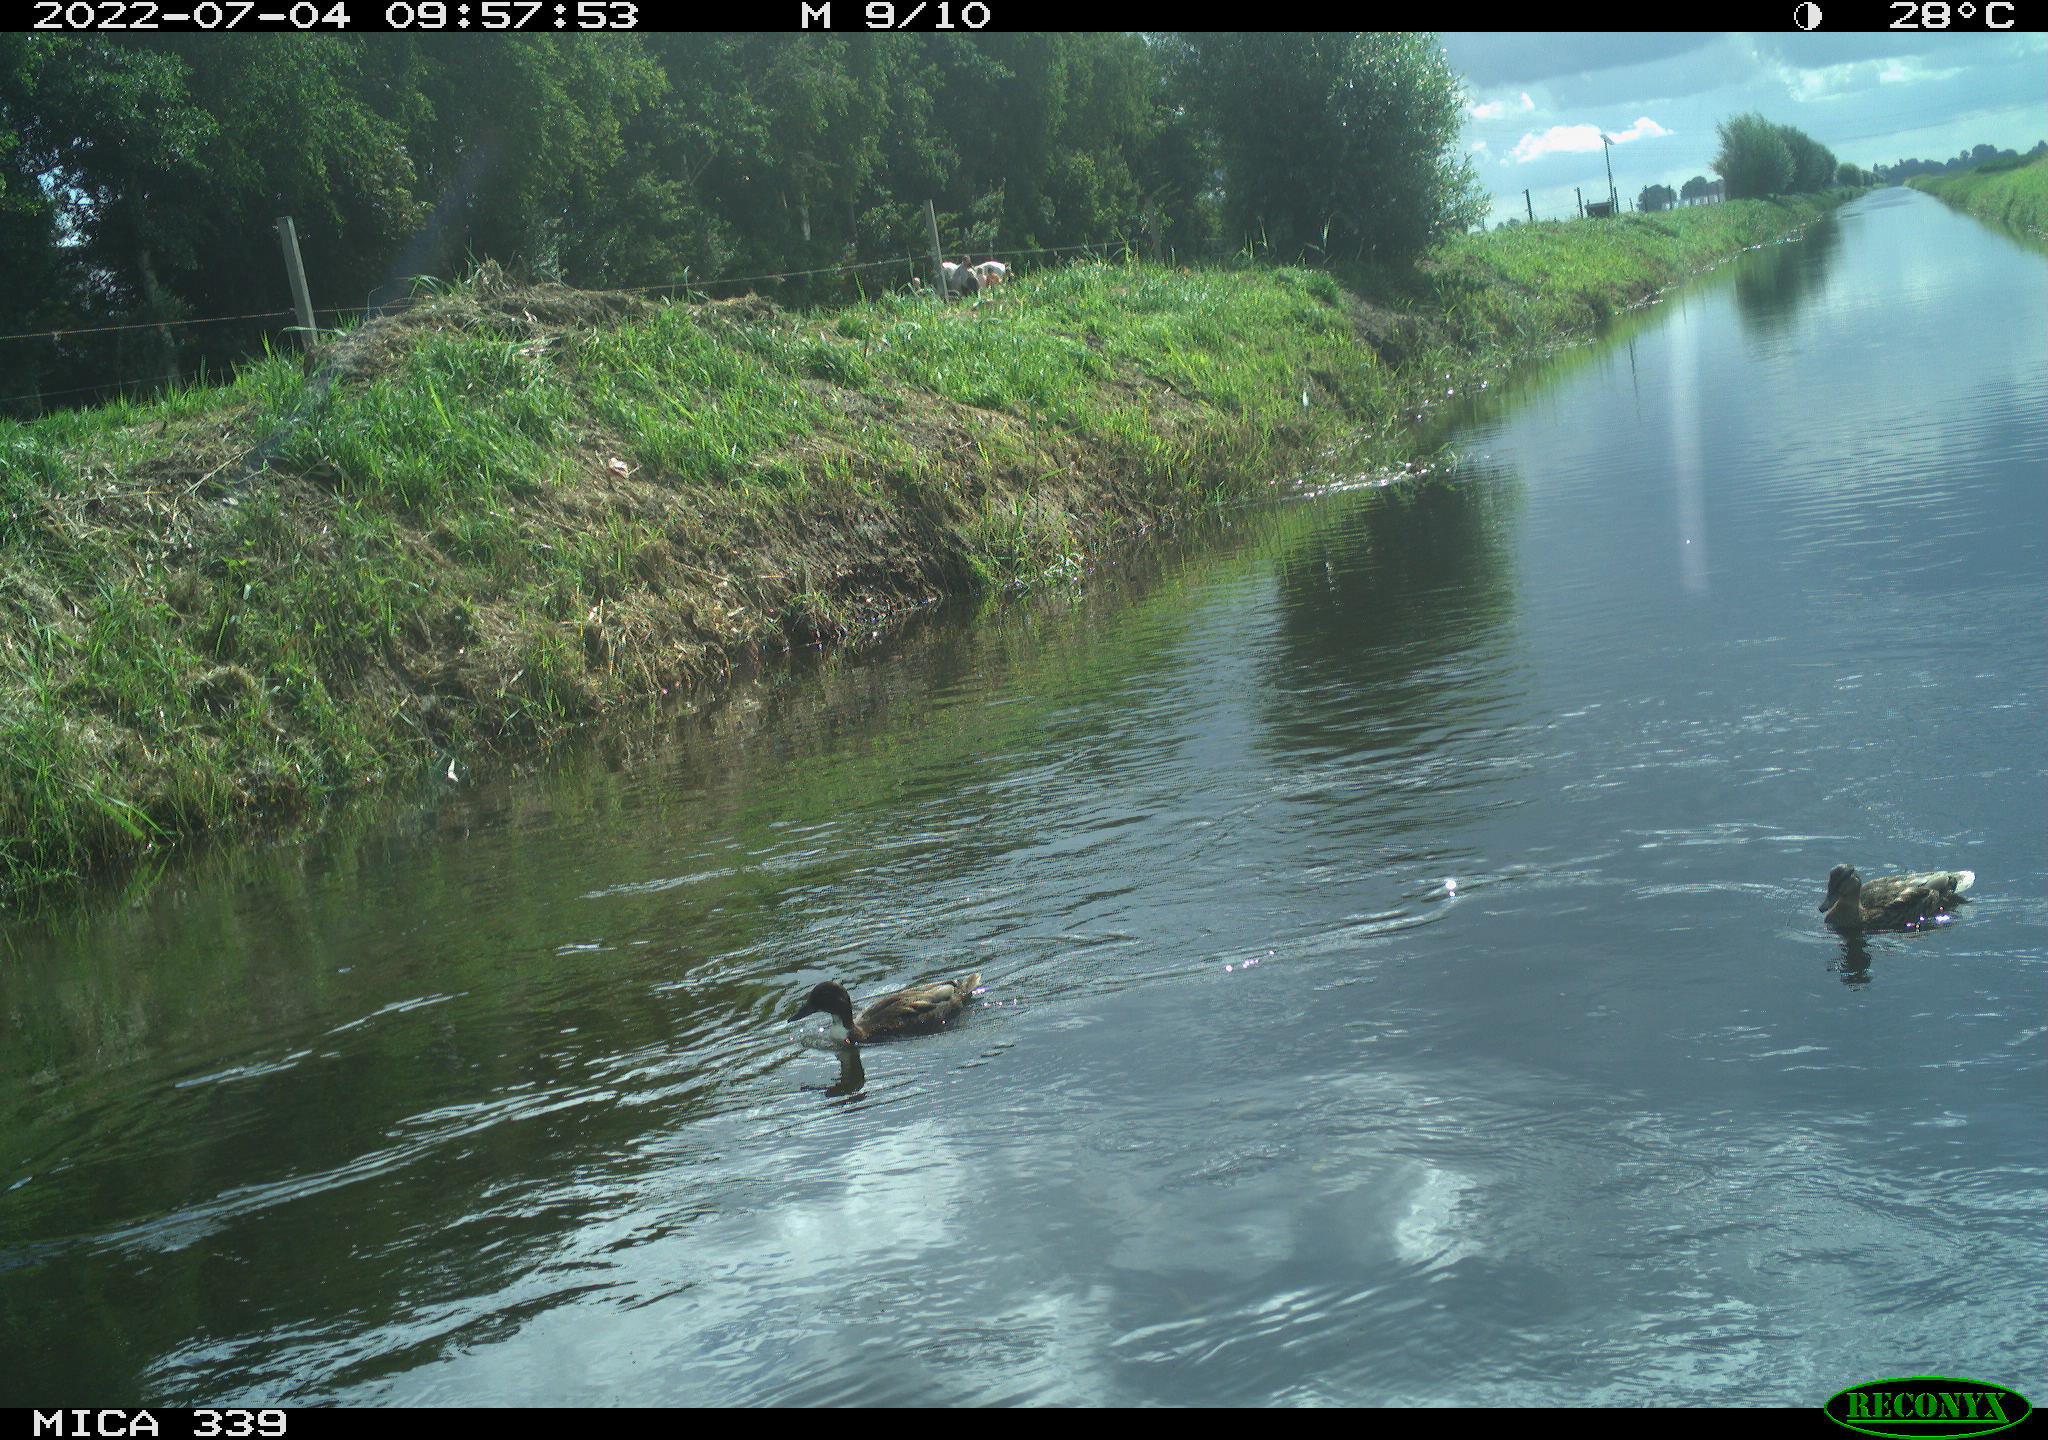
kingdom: Animalia
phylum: Chordata
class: Aves
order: Anseriformes
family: Anatidae
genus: Anas
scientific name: Anas platyrhynchos
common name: Mallard
